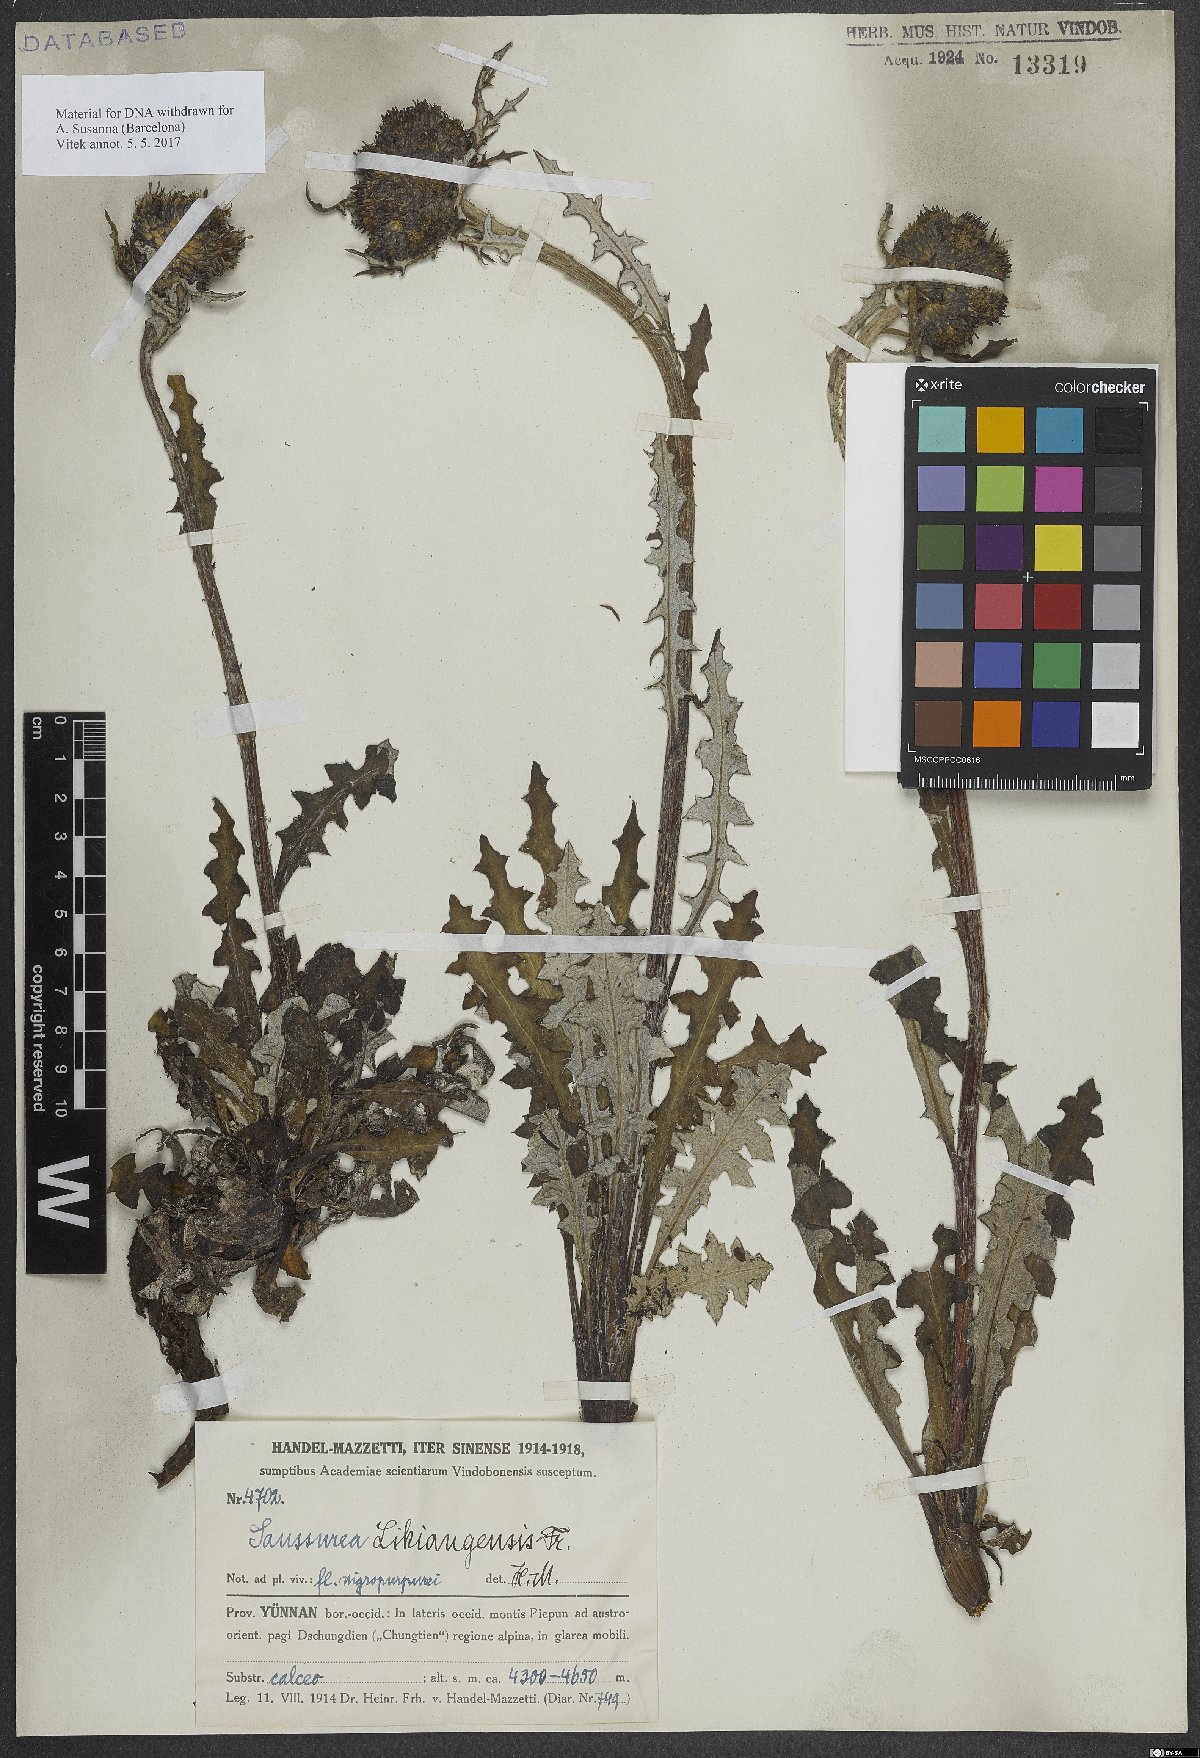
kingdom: Plantae
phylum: Tracheophyta
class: Magnoliopsida
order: Asterales
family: Asteraceae
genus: Saussurea
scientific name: Saussurea przewalskii
